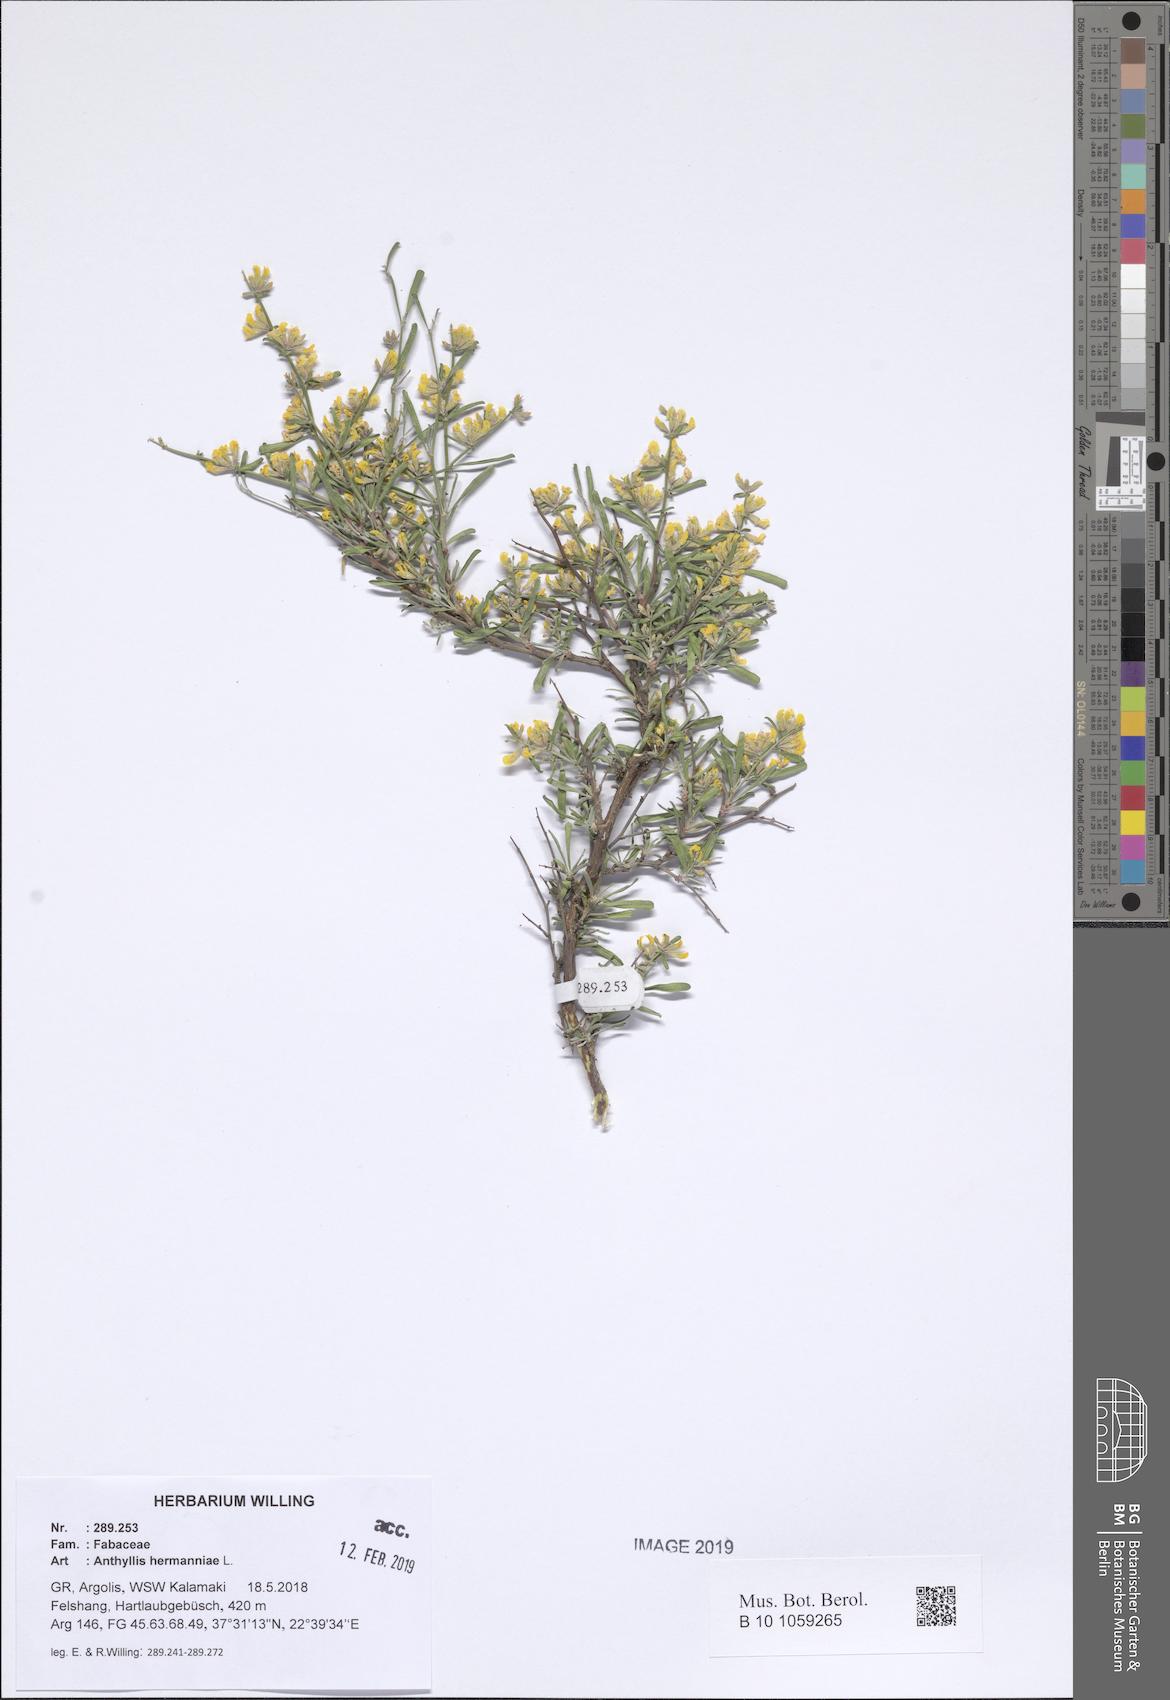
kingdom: Plantae
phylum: Tracheophyta
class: Magnoliopsida
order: Fabales
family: Fabaceae
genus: Anthyllis
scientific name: Anthyllis hermanniae
